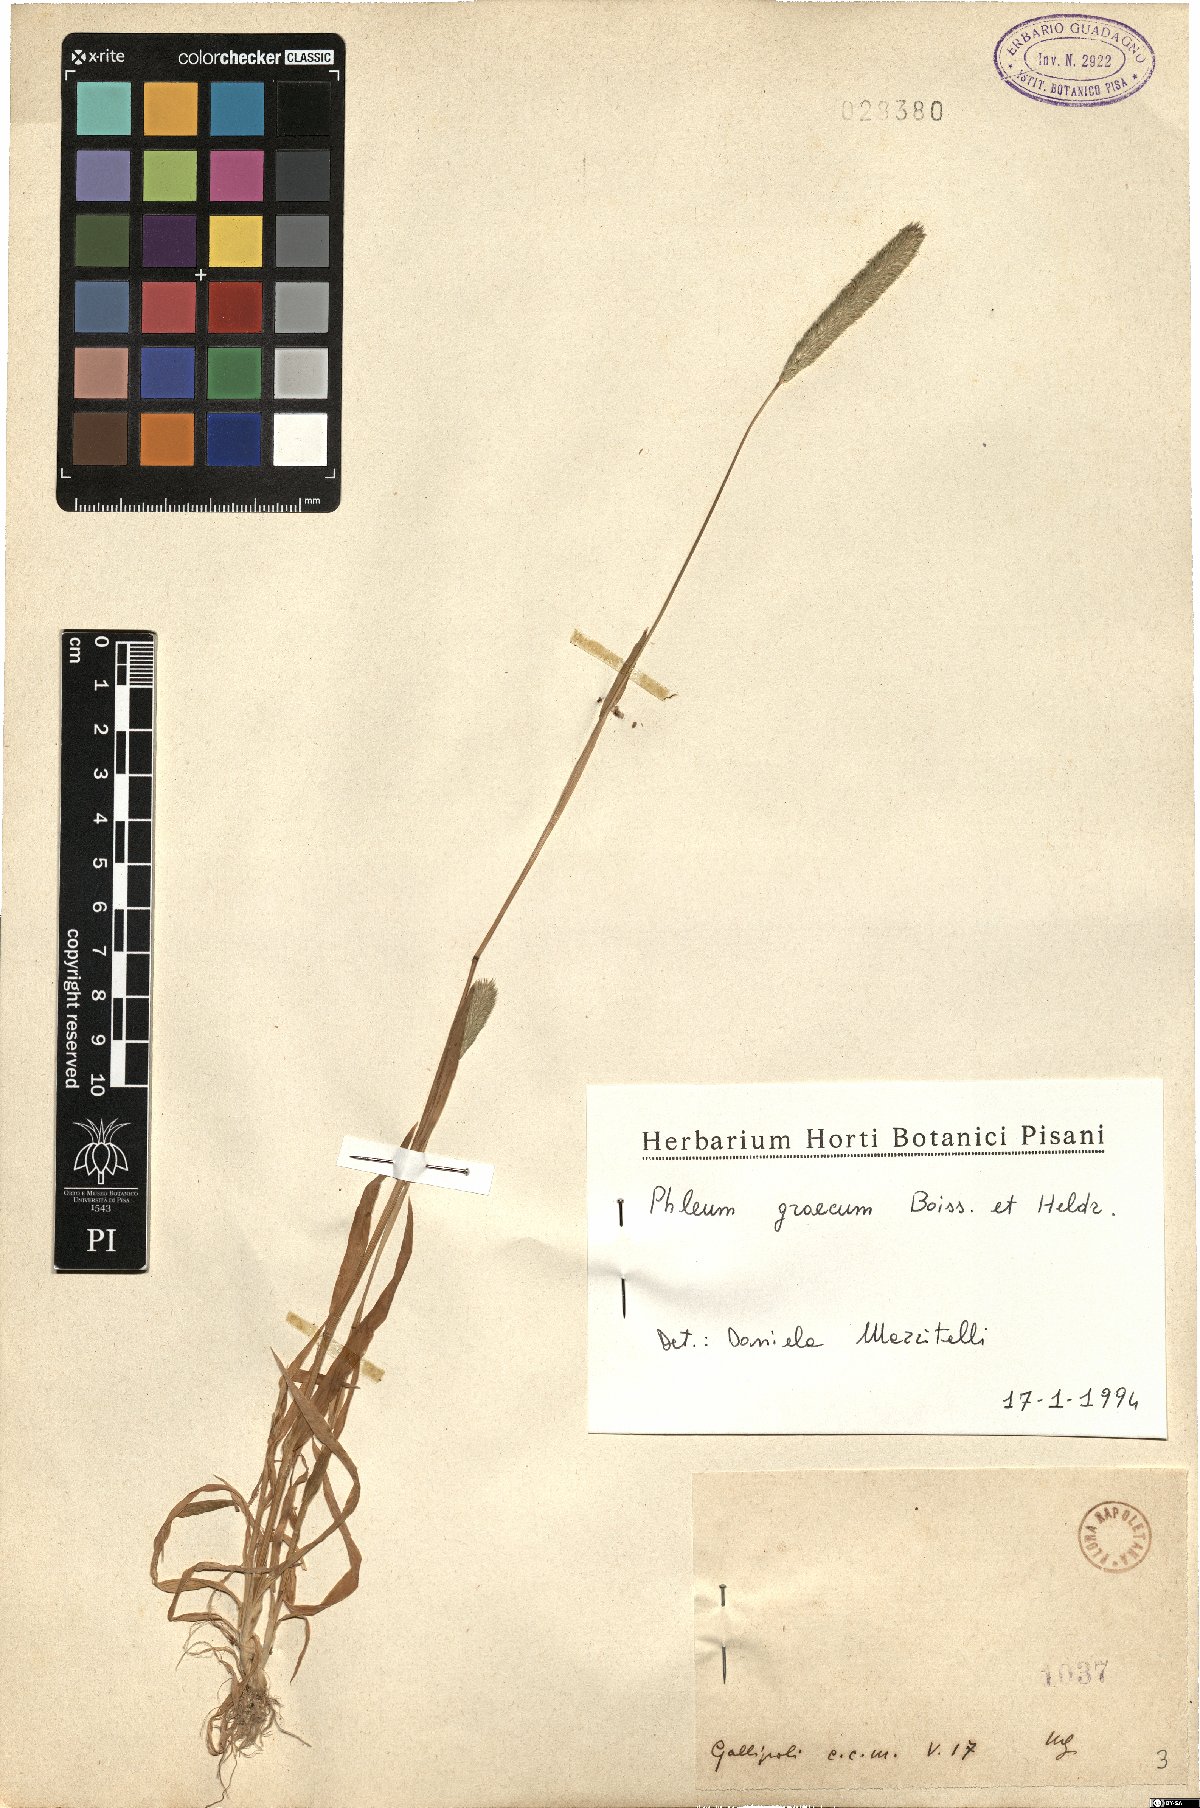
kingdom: Plantae
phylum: Tracheophyta
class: Liliopsida
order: Poales
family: Poaceae
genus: Phleum
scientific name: Phleum exaratum
